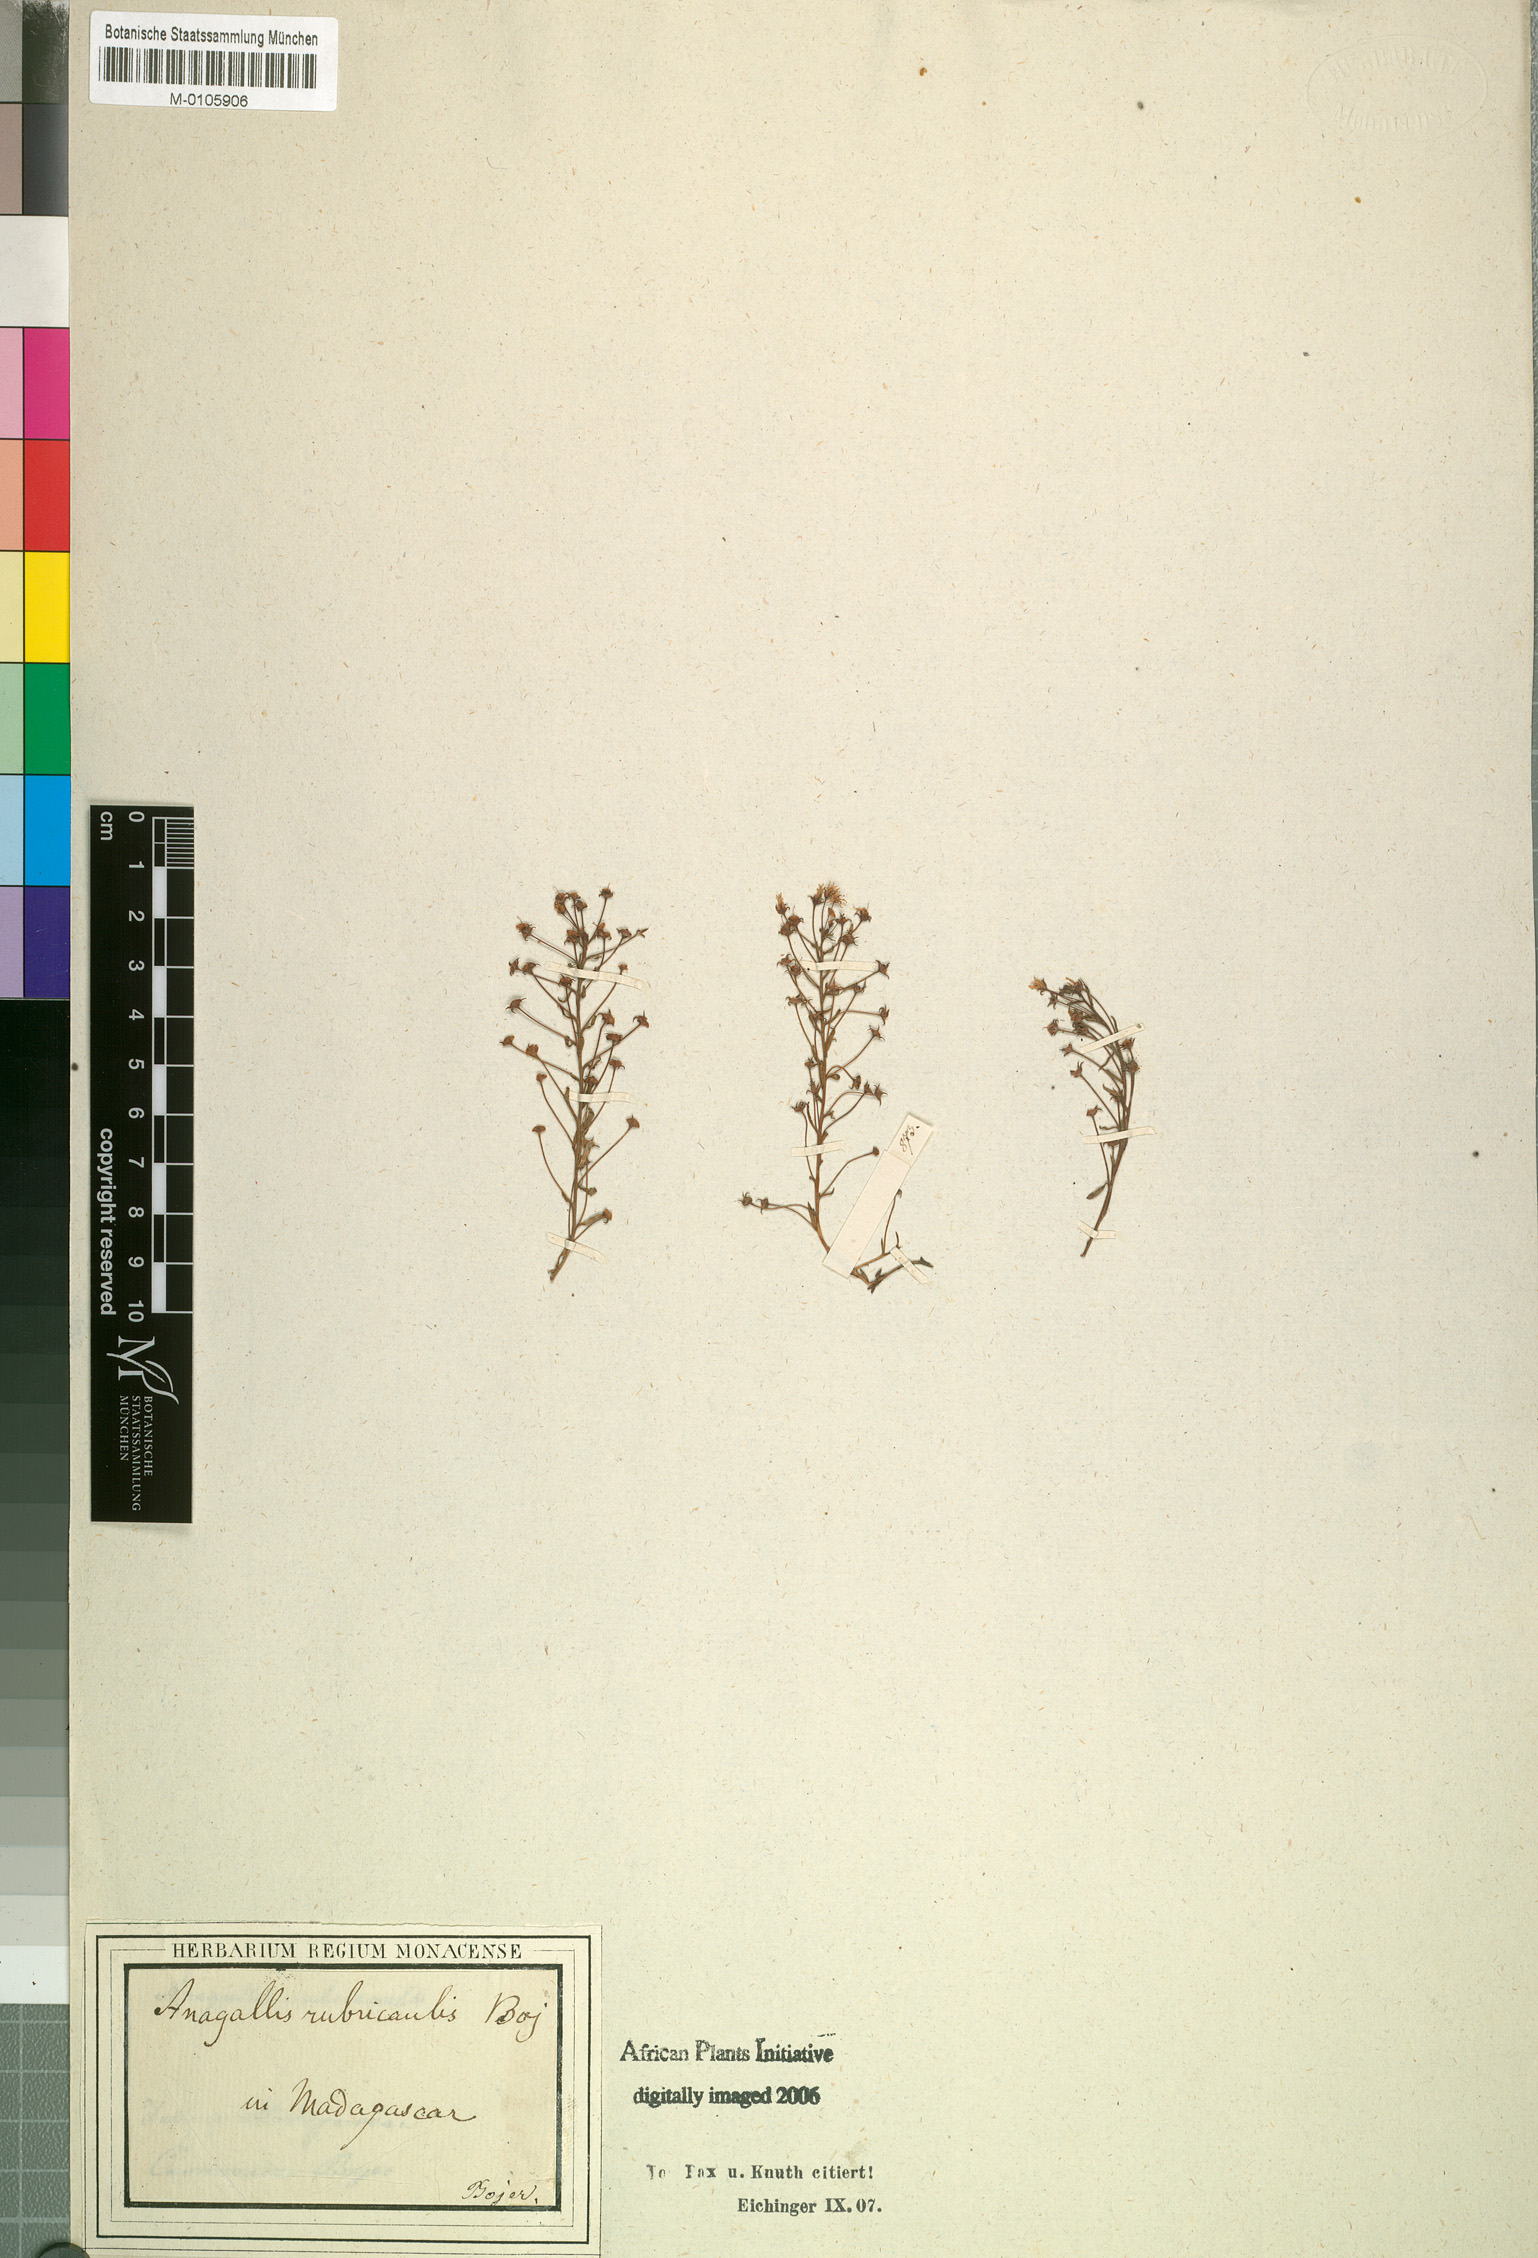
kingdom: Plantae
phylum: Tracheophyta
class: Magnoliopsida
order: Ericales
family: Primulaceae
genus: Lysimachia
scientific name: Lysimachia Anagallis rubricaulis
